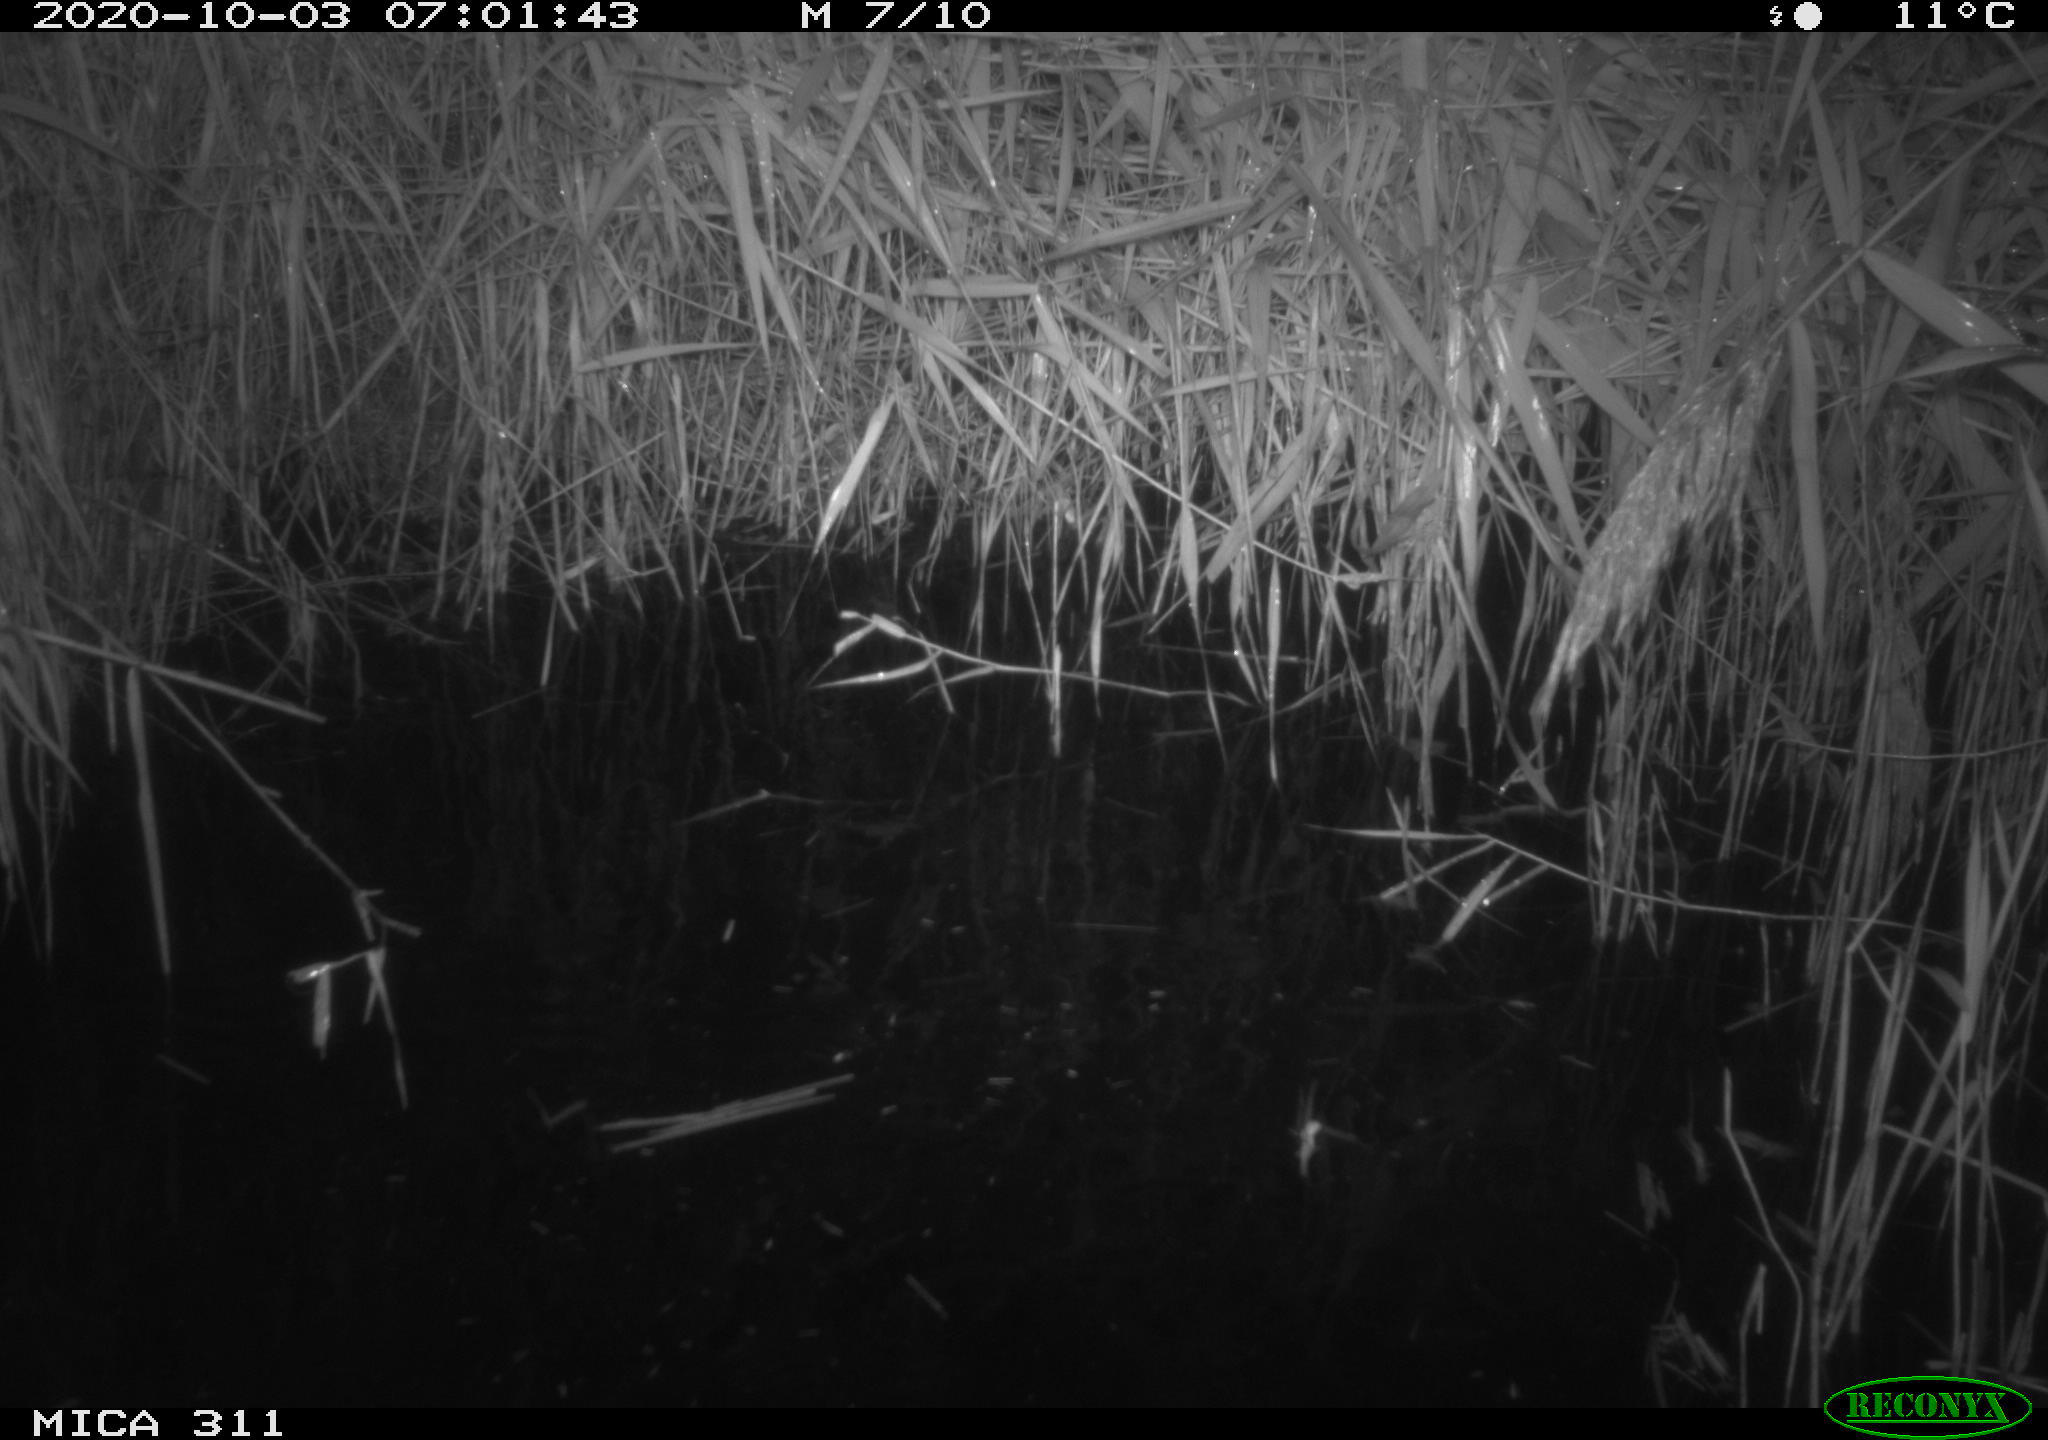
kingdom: Animalia
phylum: Chordata
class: Mammalia
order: Rodentia
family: Muridae
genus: Rattus
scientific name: Rattus norvegicus
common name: Brown rat
